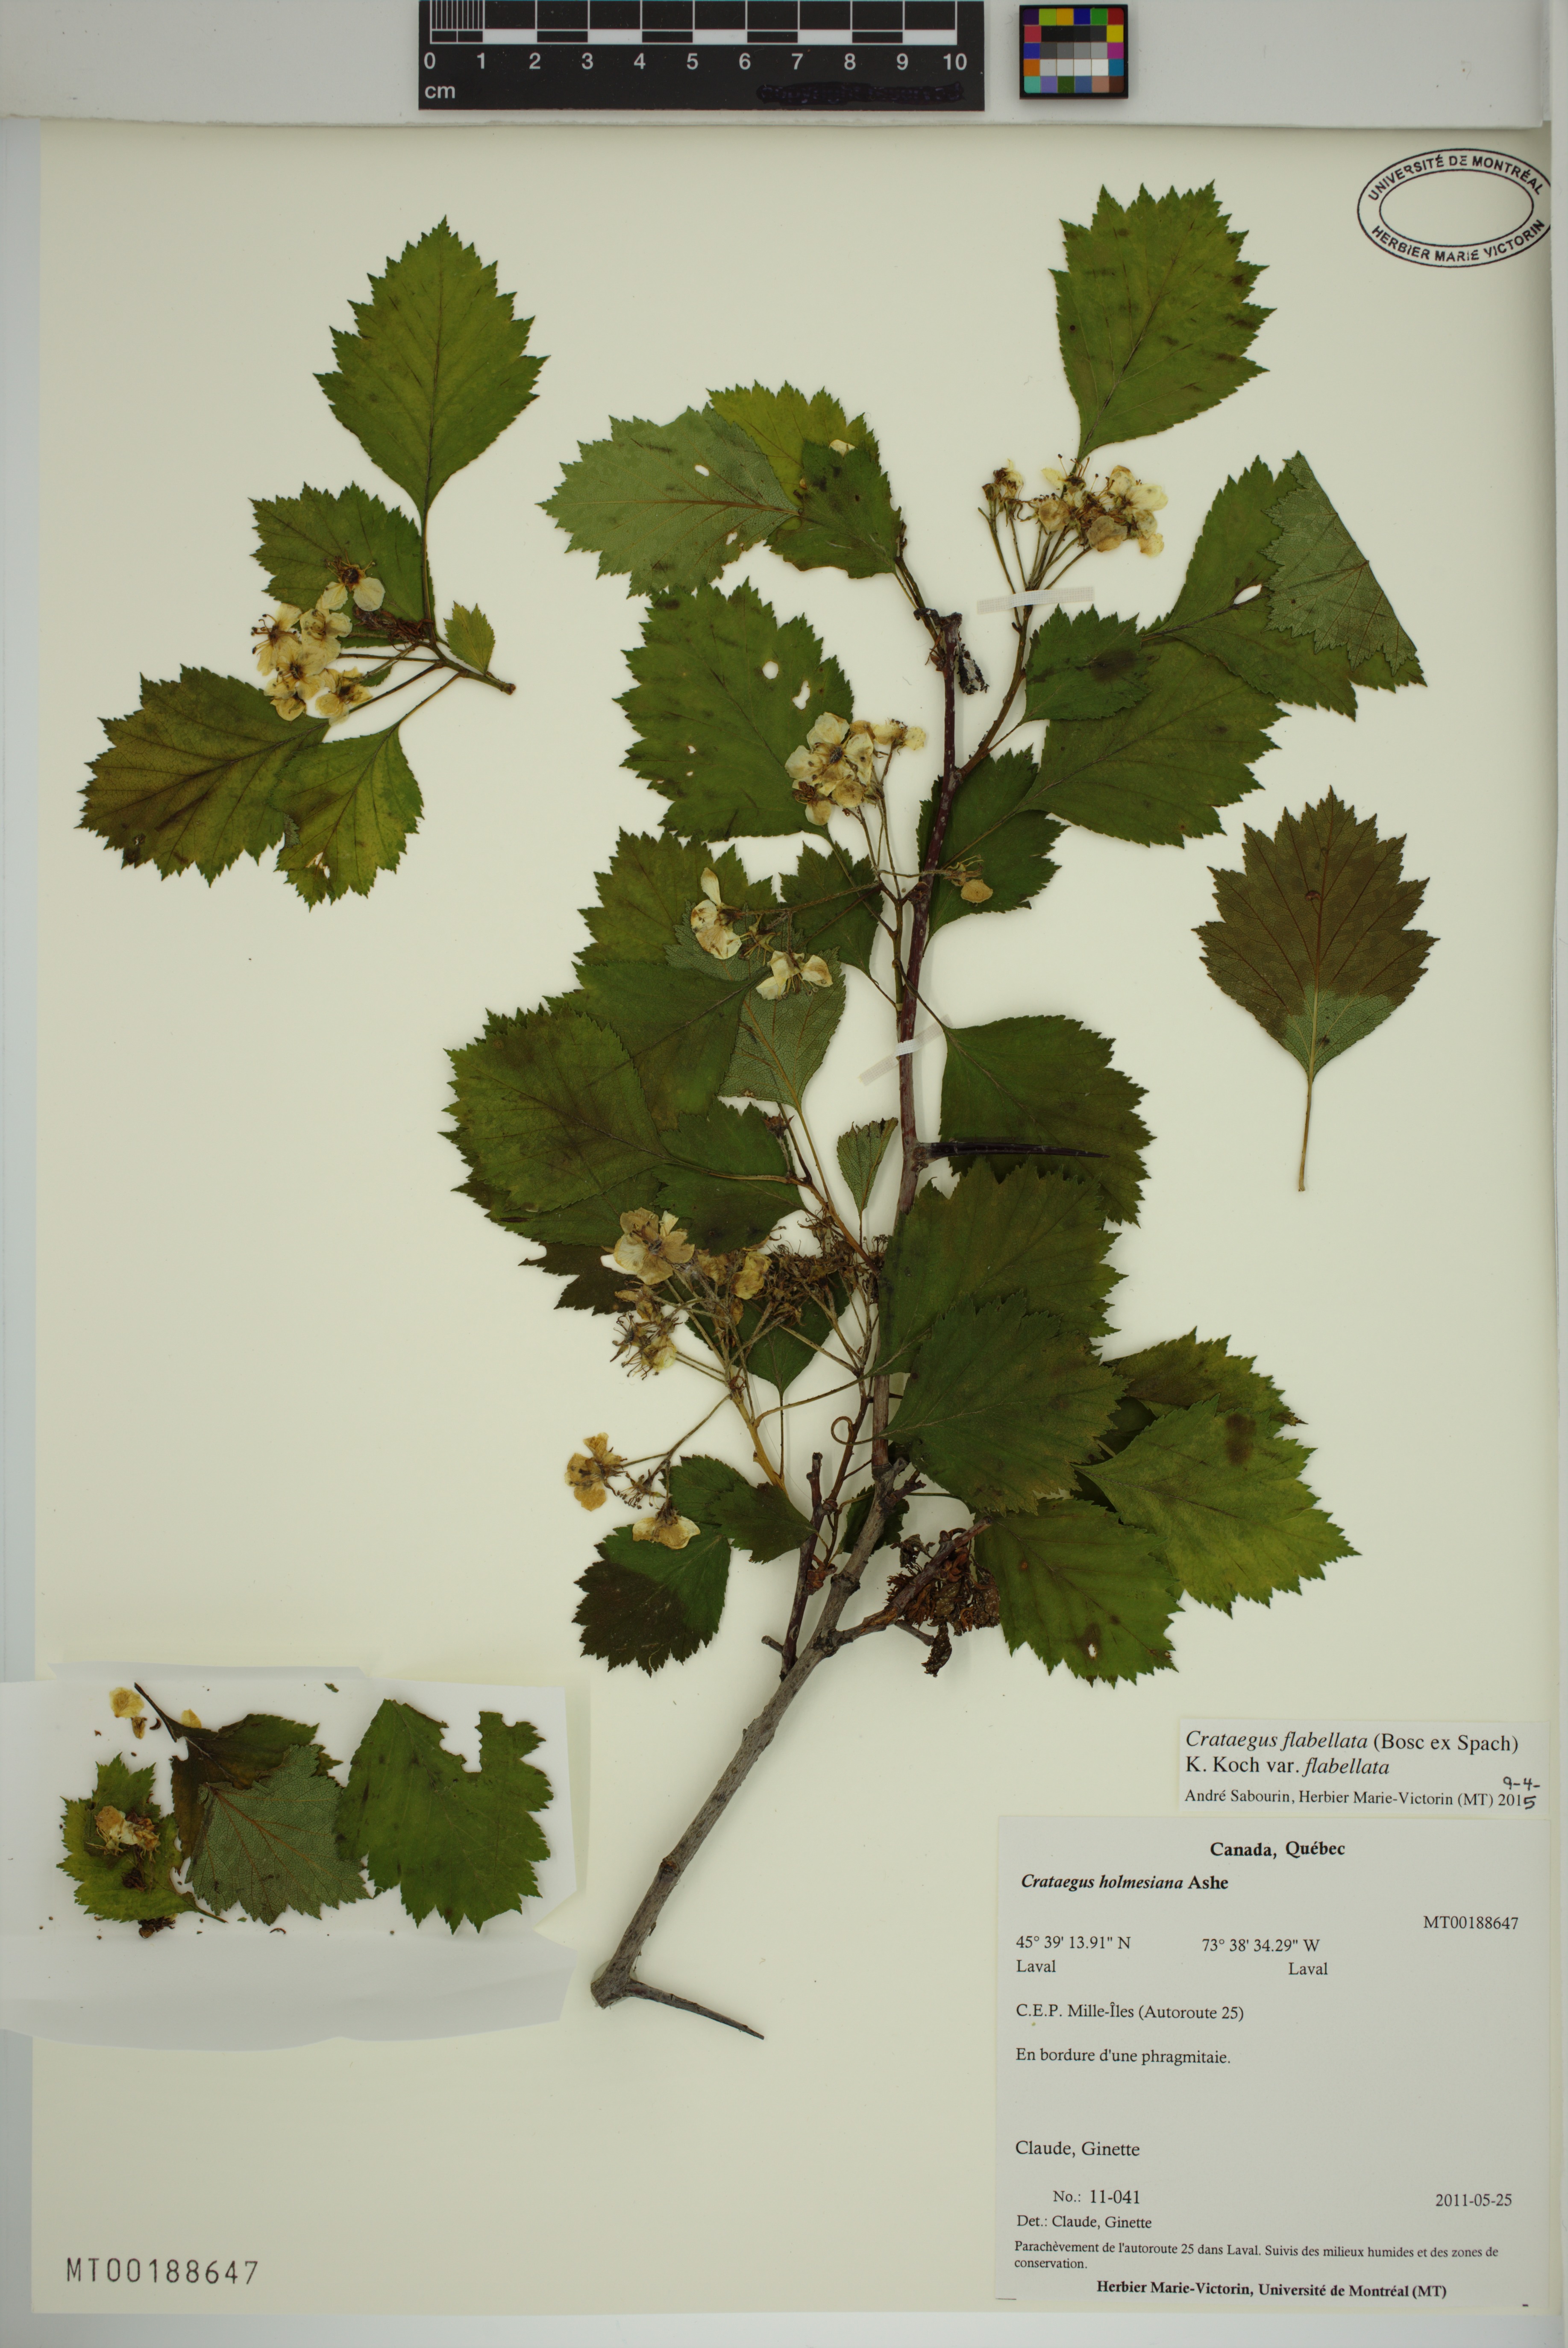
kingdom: Plantae
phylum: Tracheophyta
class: Magnoliopsida
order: Rosales
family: Rosaceae
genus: Crataegus
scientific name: Crataegus flabellata
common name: Bosc's hawthorn
